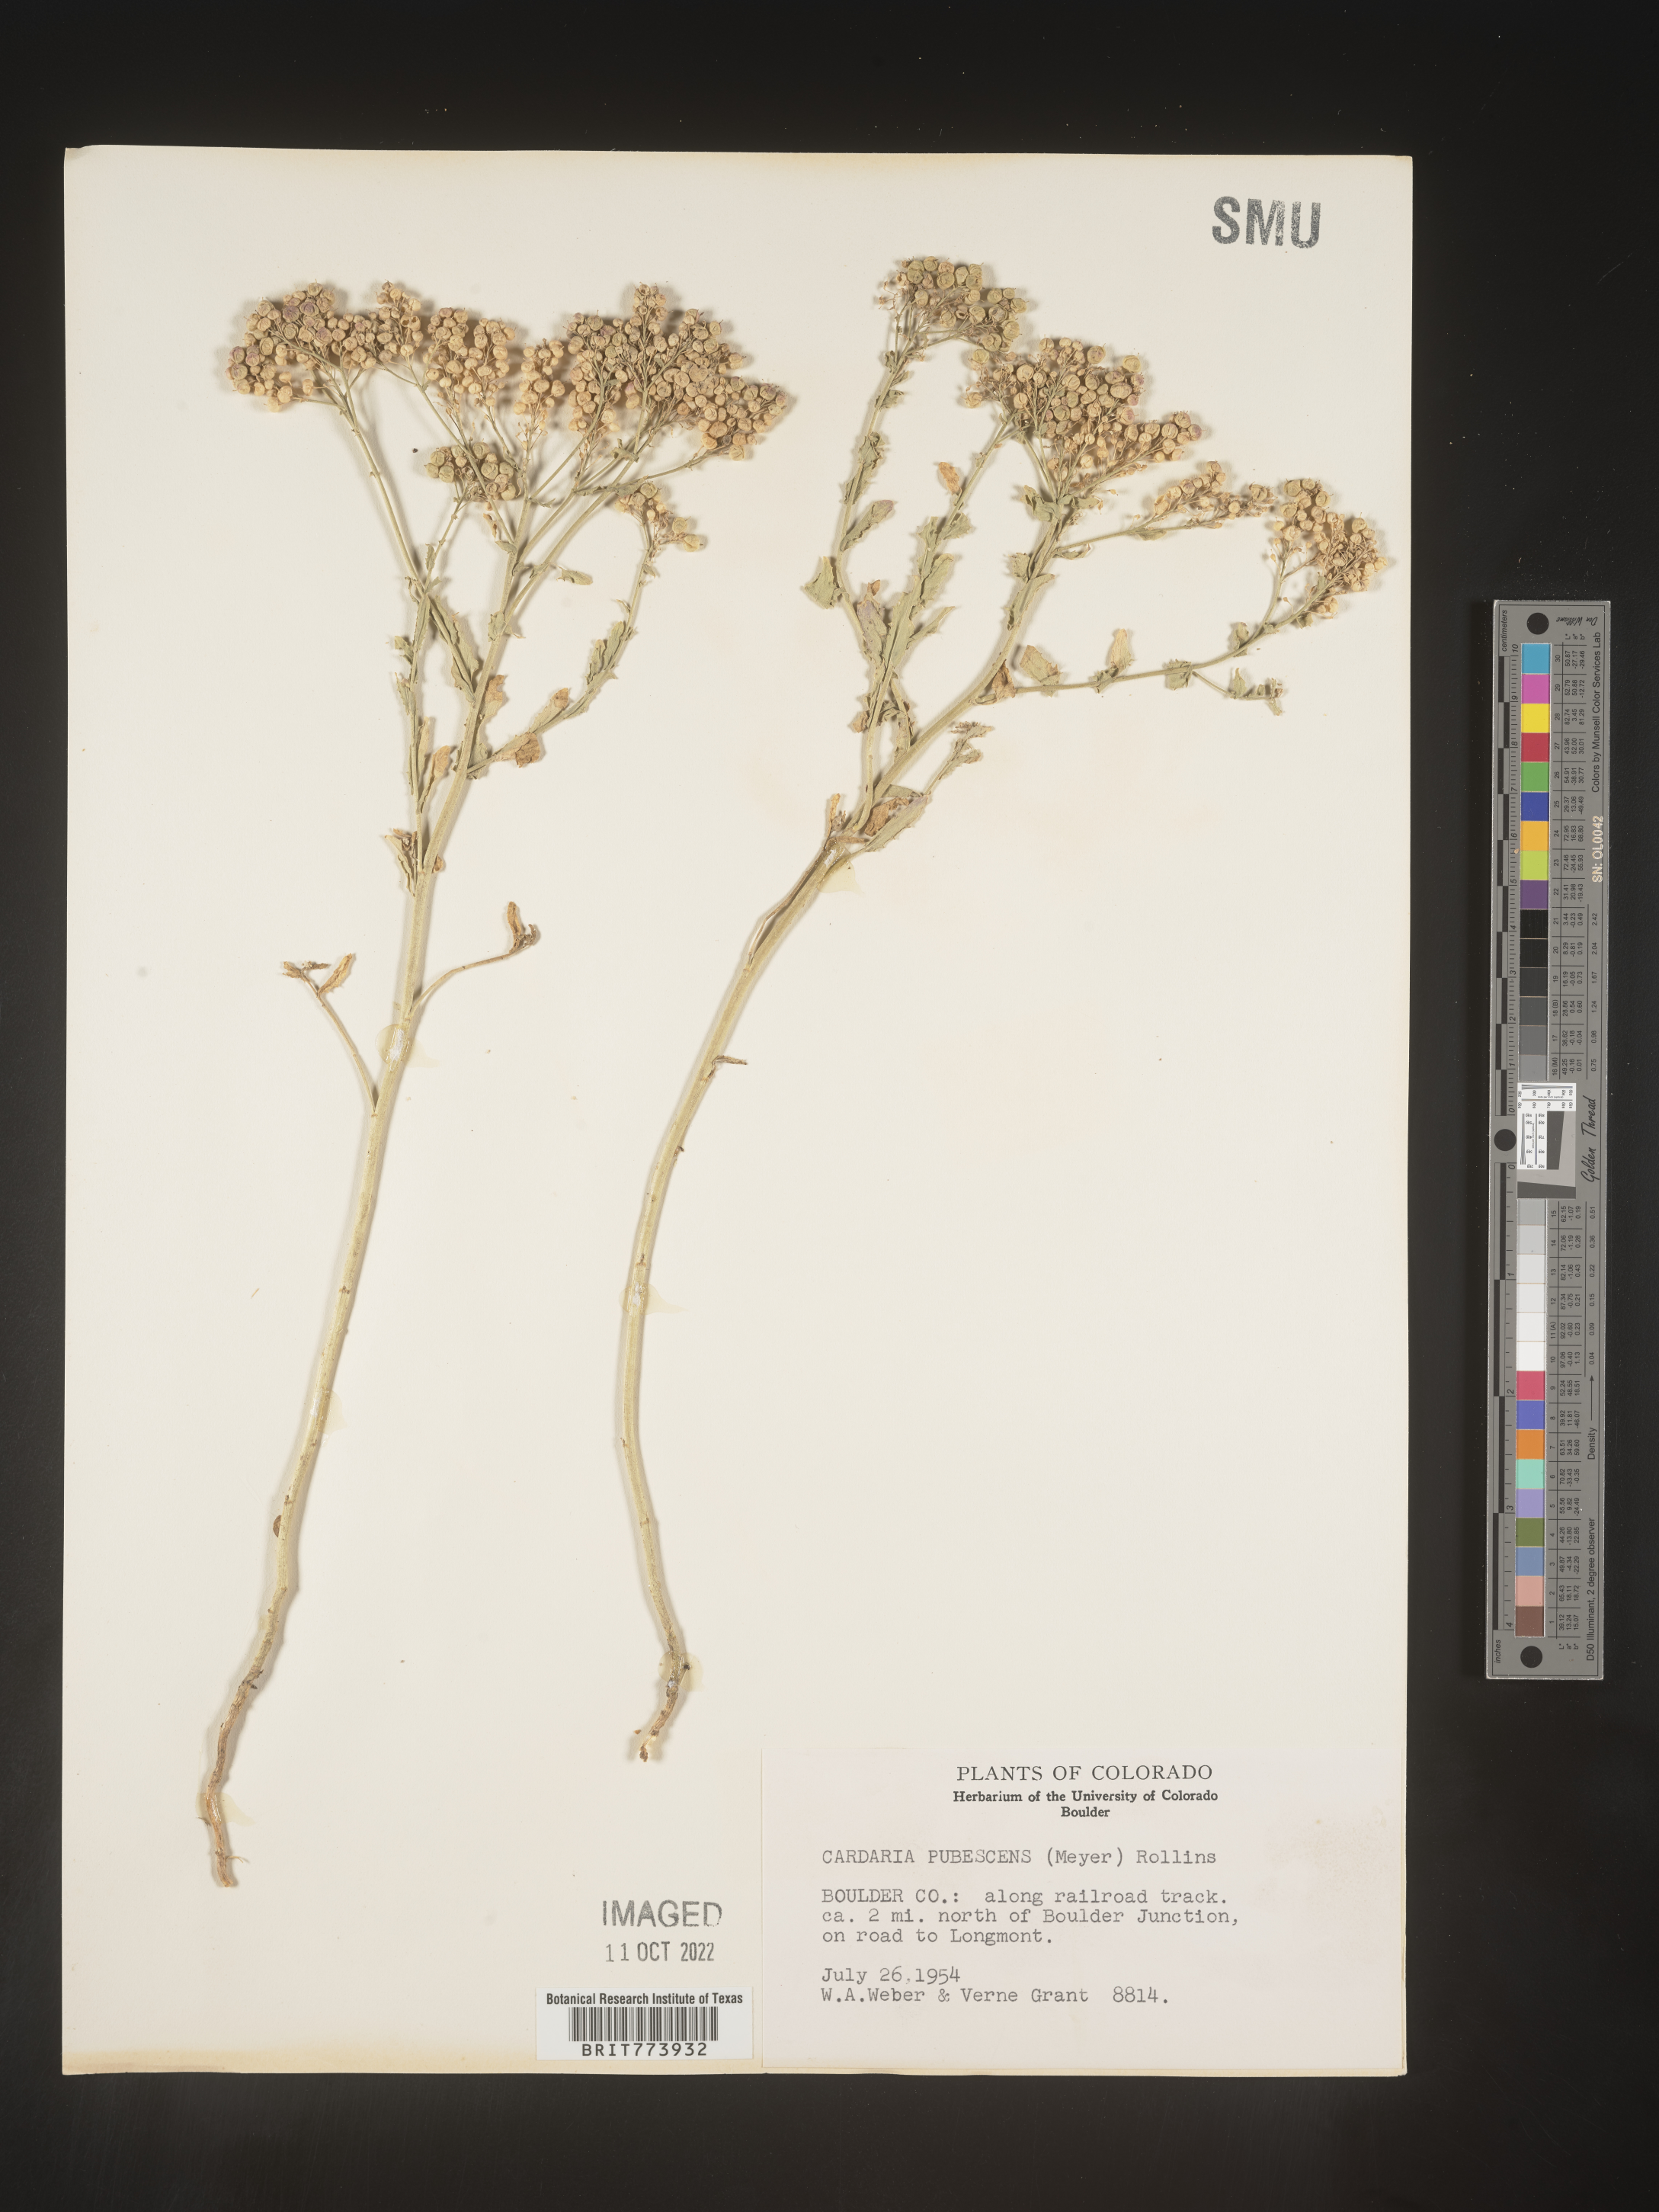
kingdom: Plantae
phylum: Tracheophyta
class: Magnoliopsida
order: Brassicales
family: Brassicaceae
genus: Lepidium
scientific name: Lepidium appelianum
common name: Hairy whitetop
